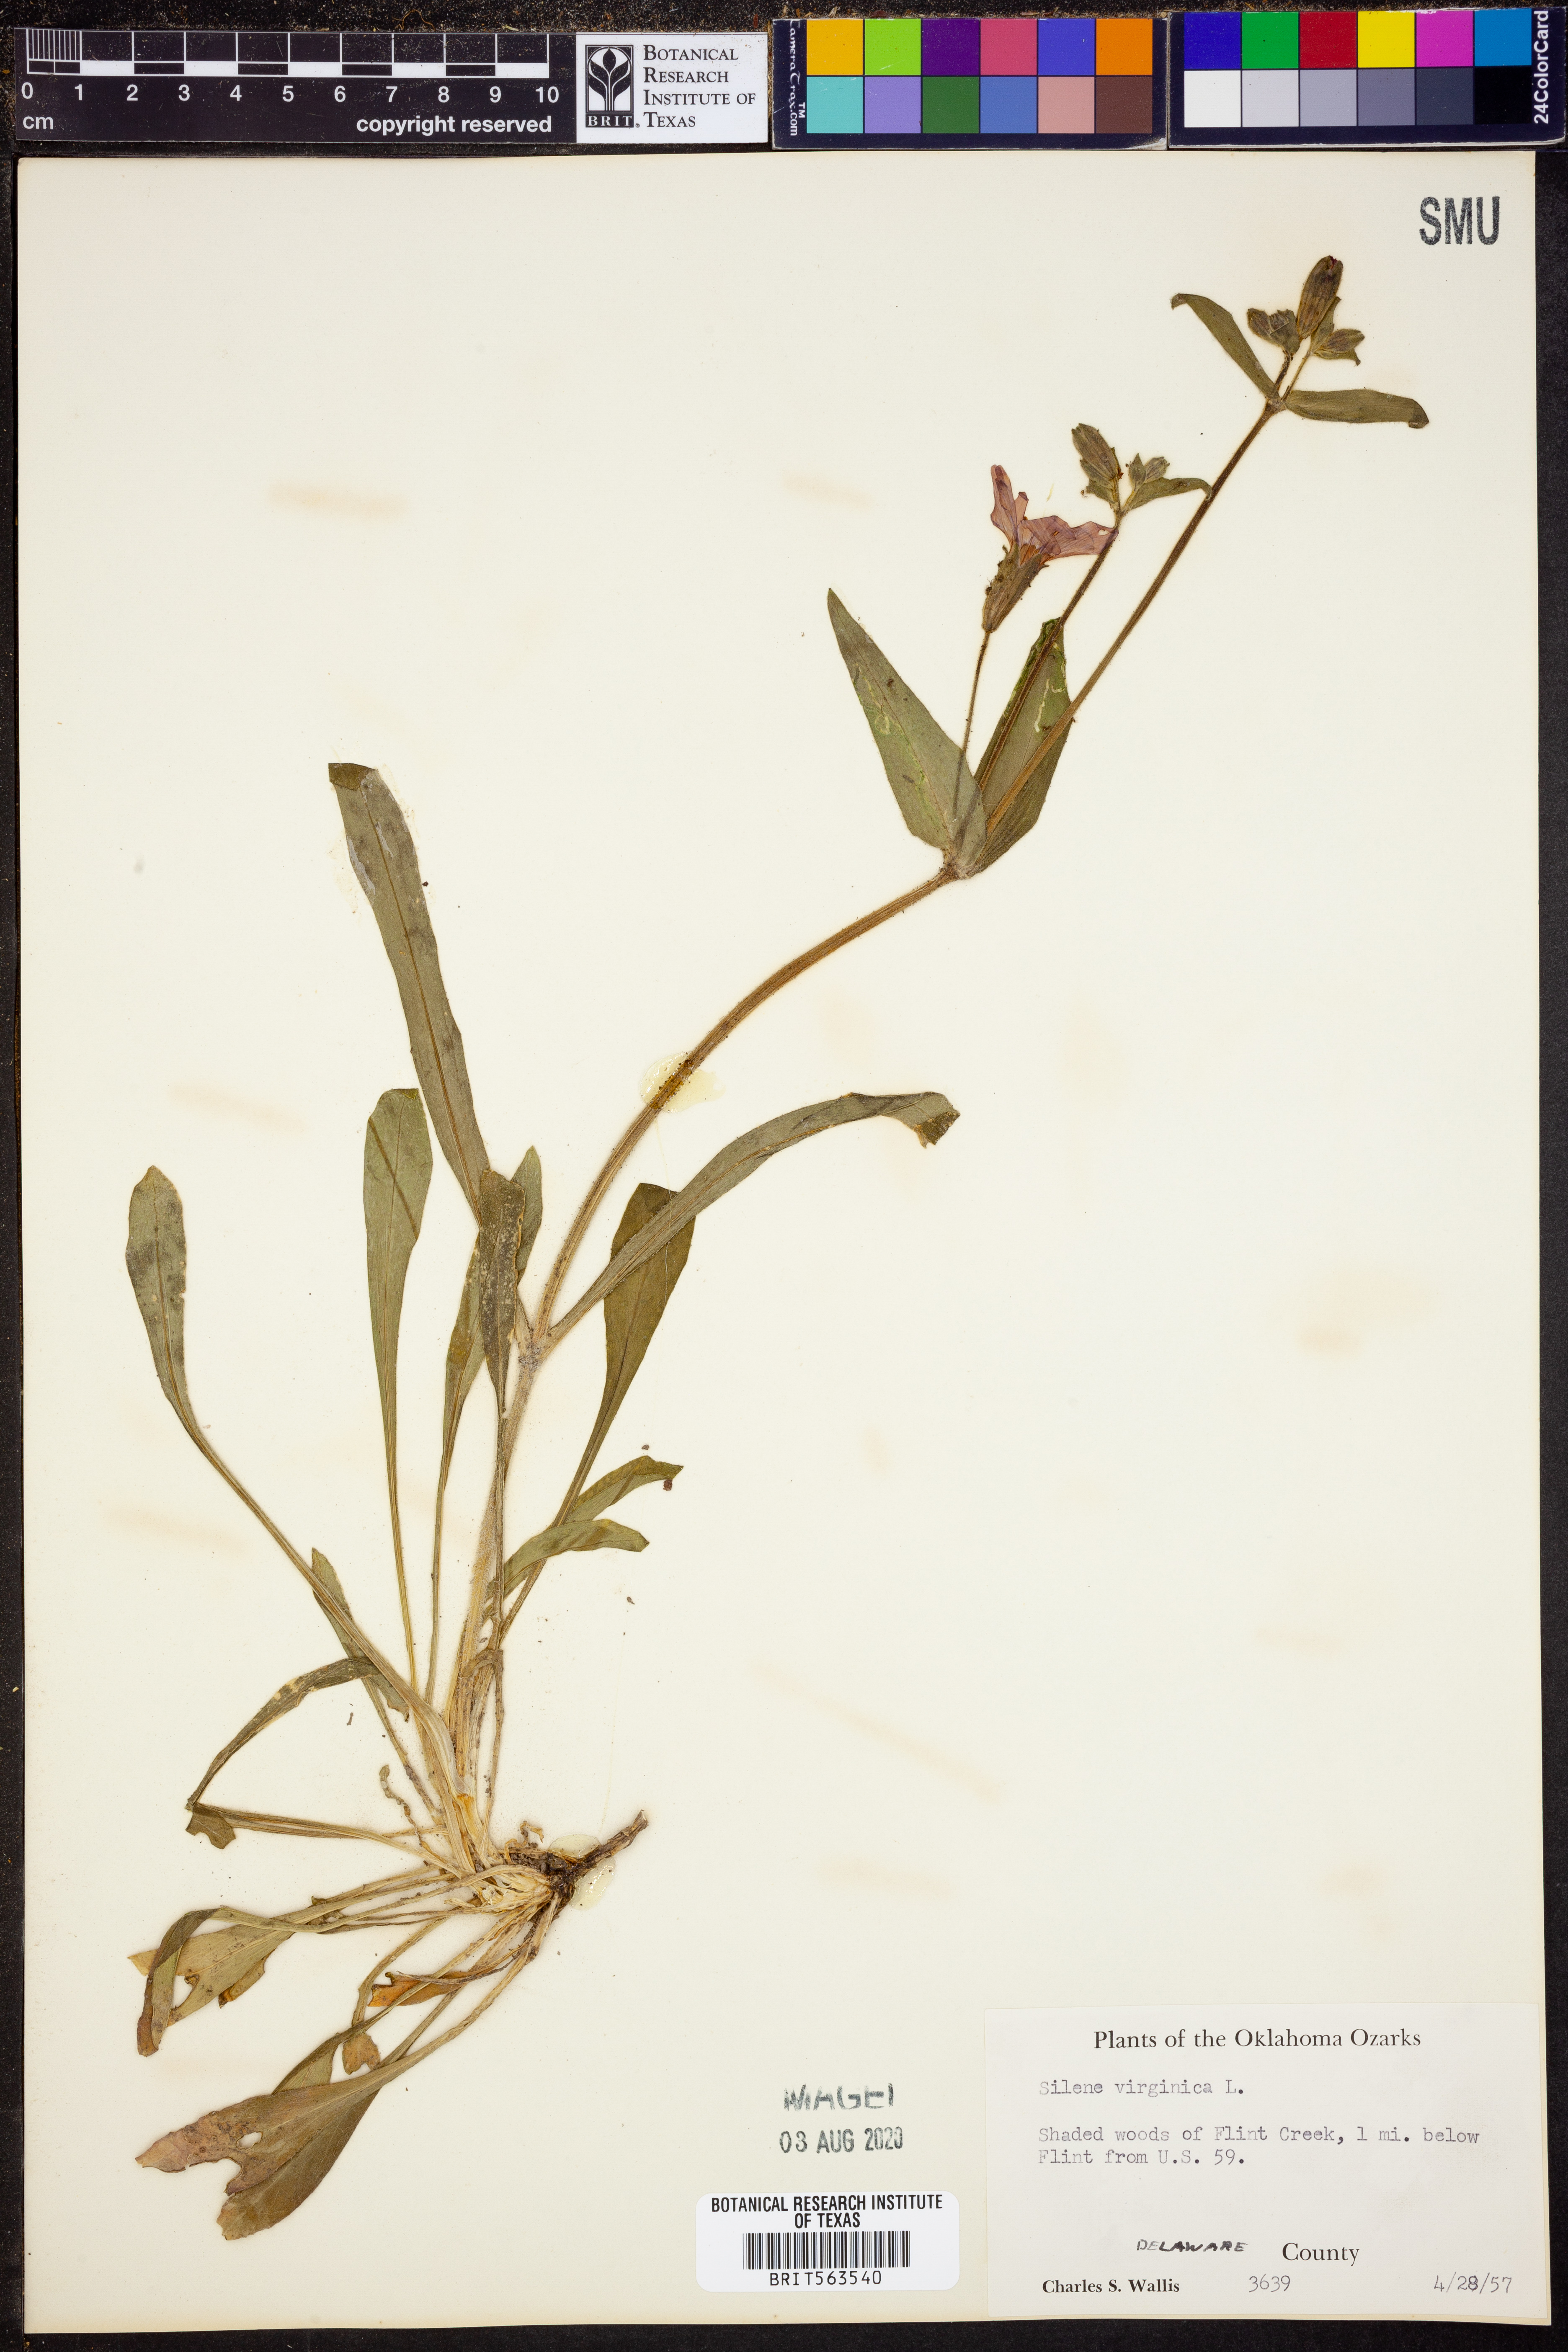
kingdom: Plantae
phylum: Tracheophyta
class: Magnoliopsida
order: Caryophyllales
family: Caryophyllaceae
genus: Silene
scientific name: Silene virginica
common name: Fire-pink
